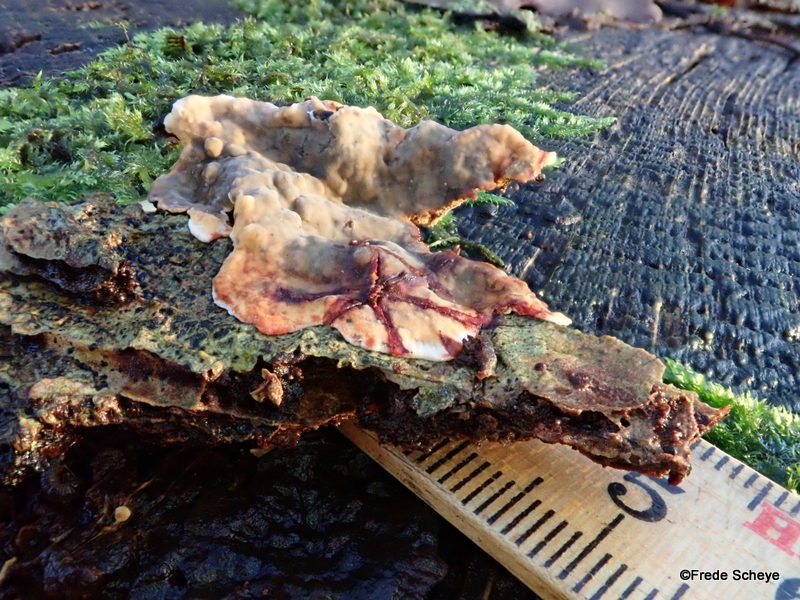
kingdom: Fungi
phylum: Basidiomycota
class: Agaricomycetes
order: Russulales
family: Stereaceae
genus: Stereum
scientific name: Stereum gausapatum
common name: tynd lædersvamp
